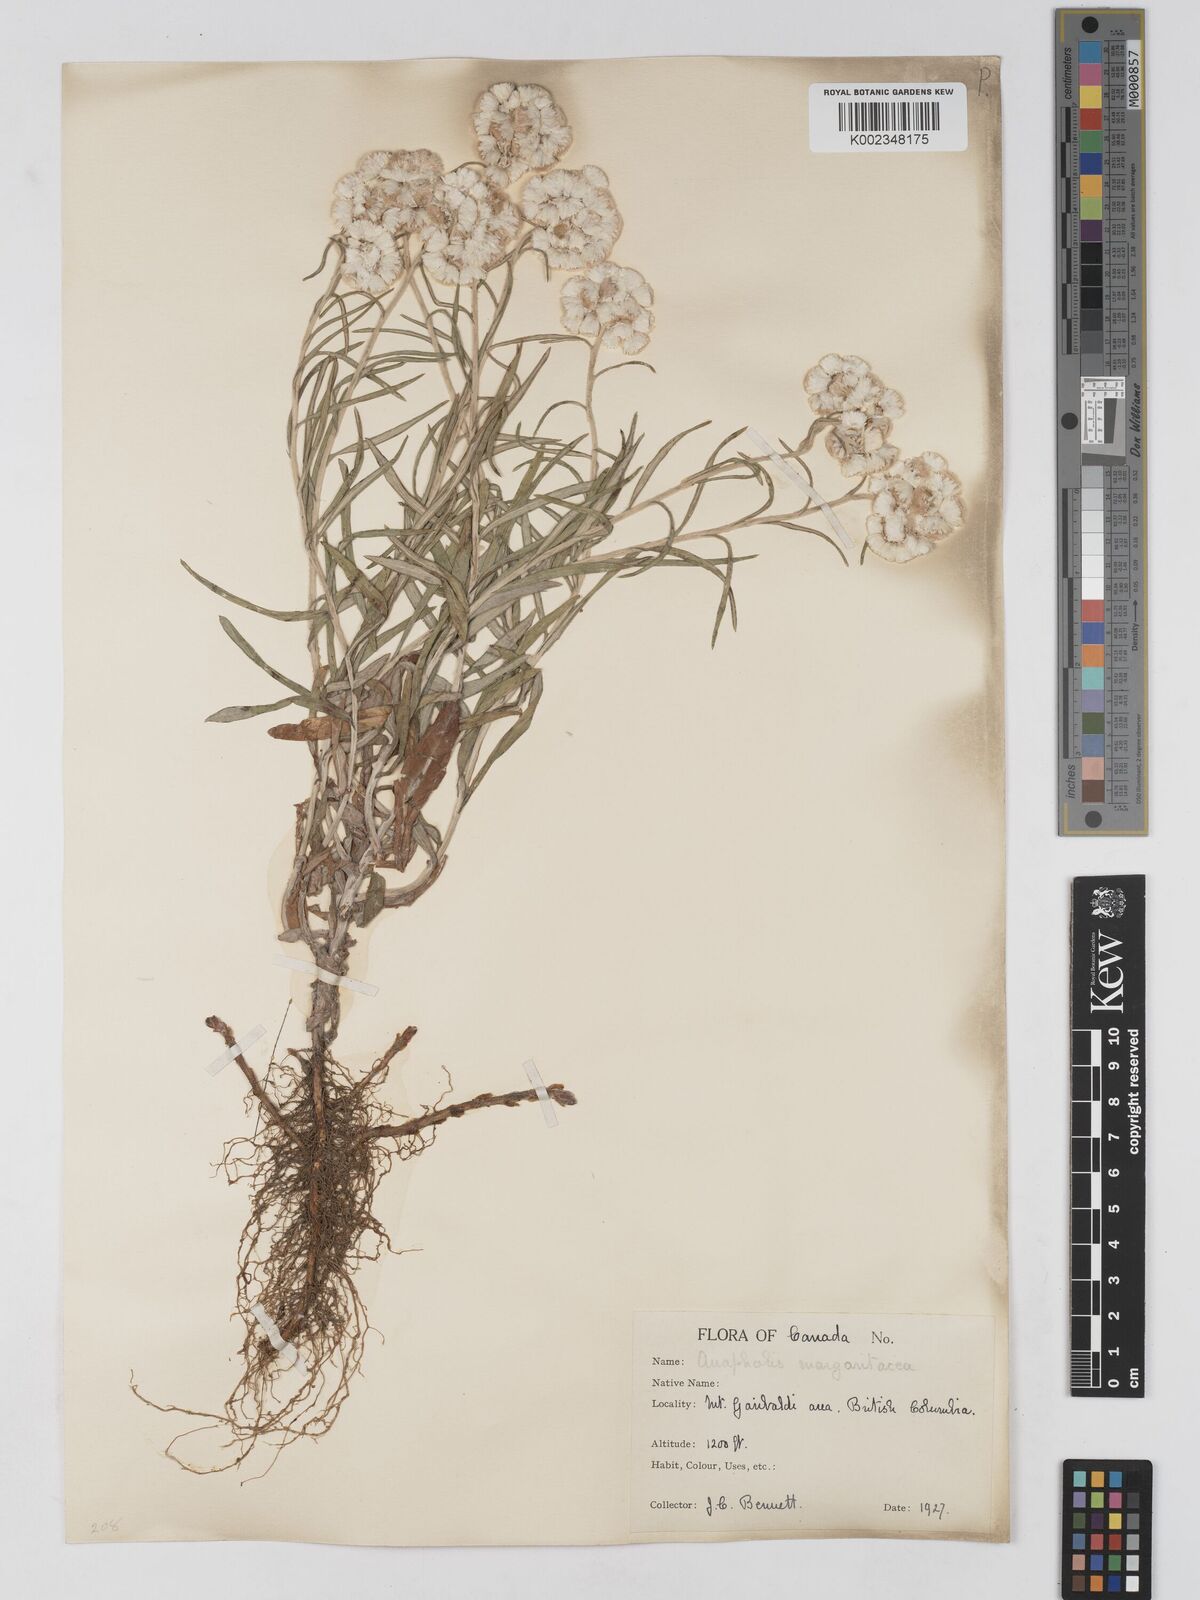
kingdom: Plantae
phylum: Tracheophyta
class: Magnoliopsida
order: Asterales
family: Asteraceae
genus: Anaphalis
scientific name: Anaphalis margaritacea
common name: Pearly everlasting
